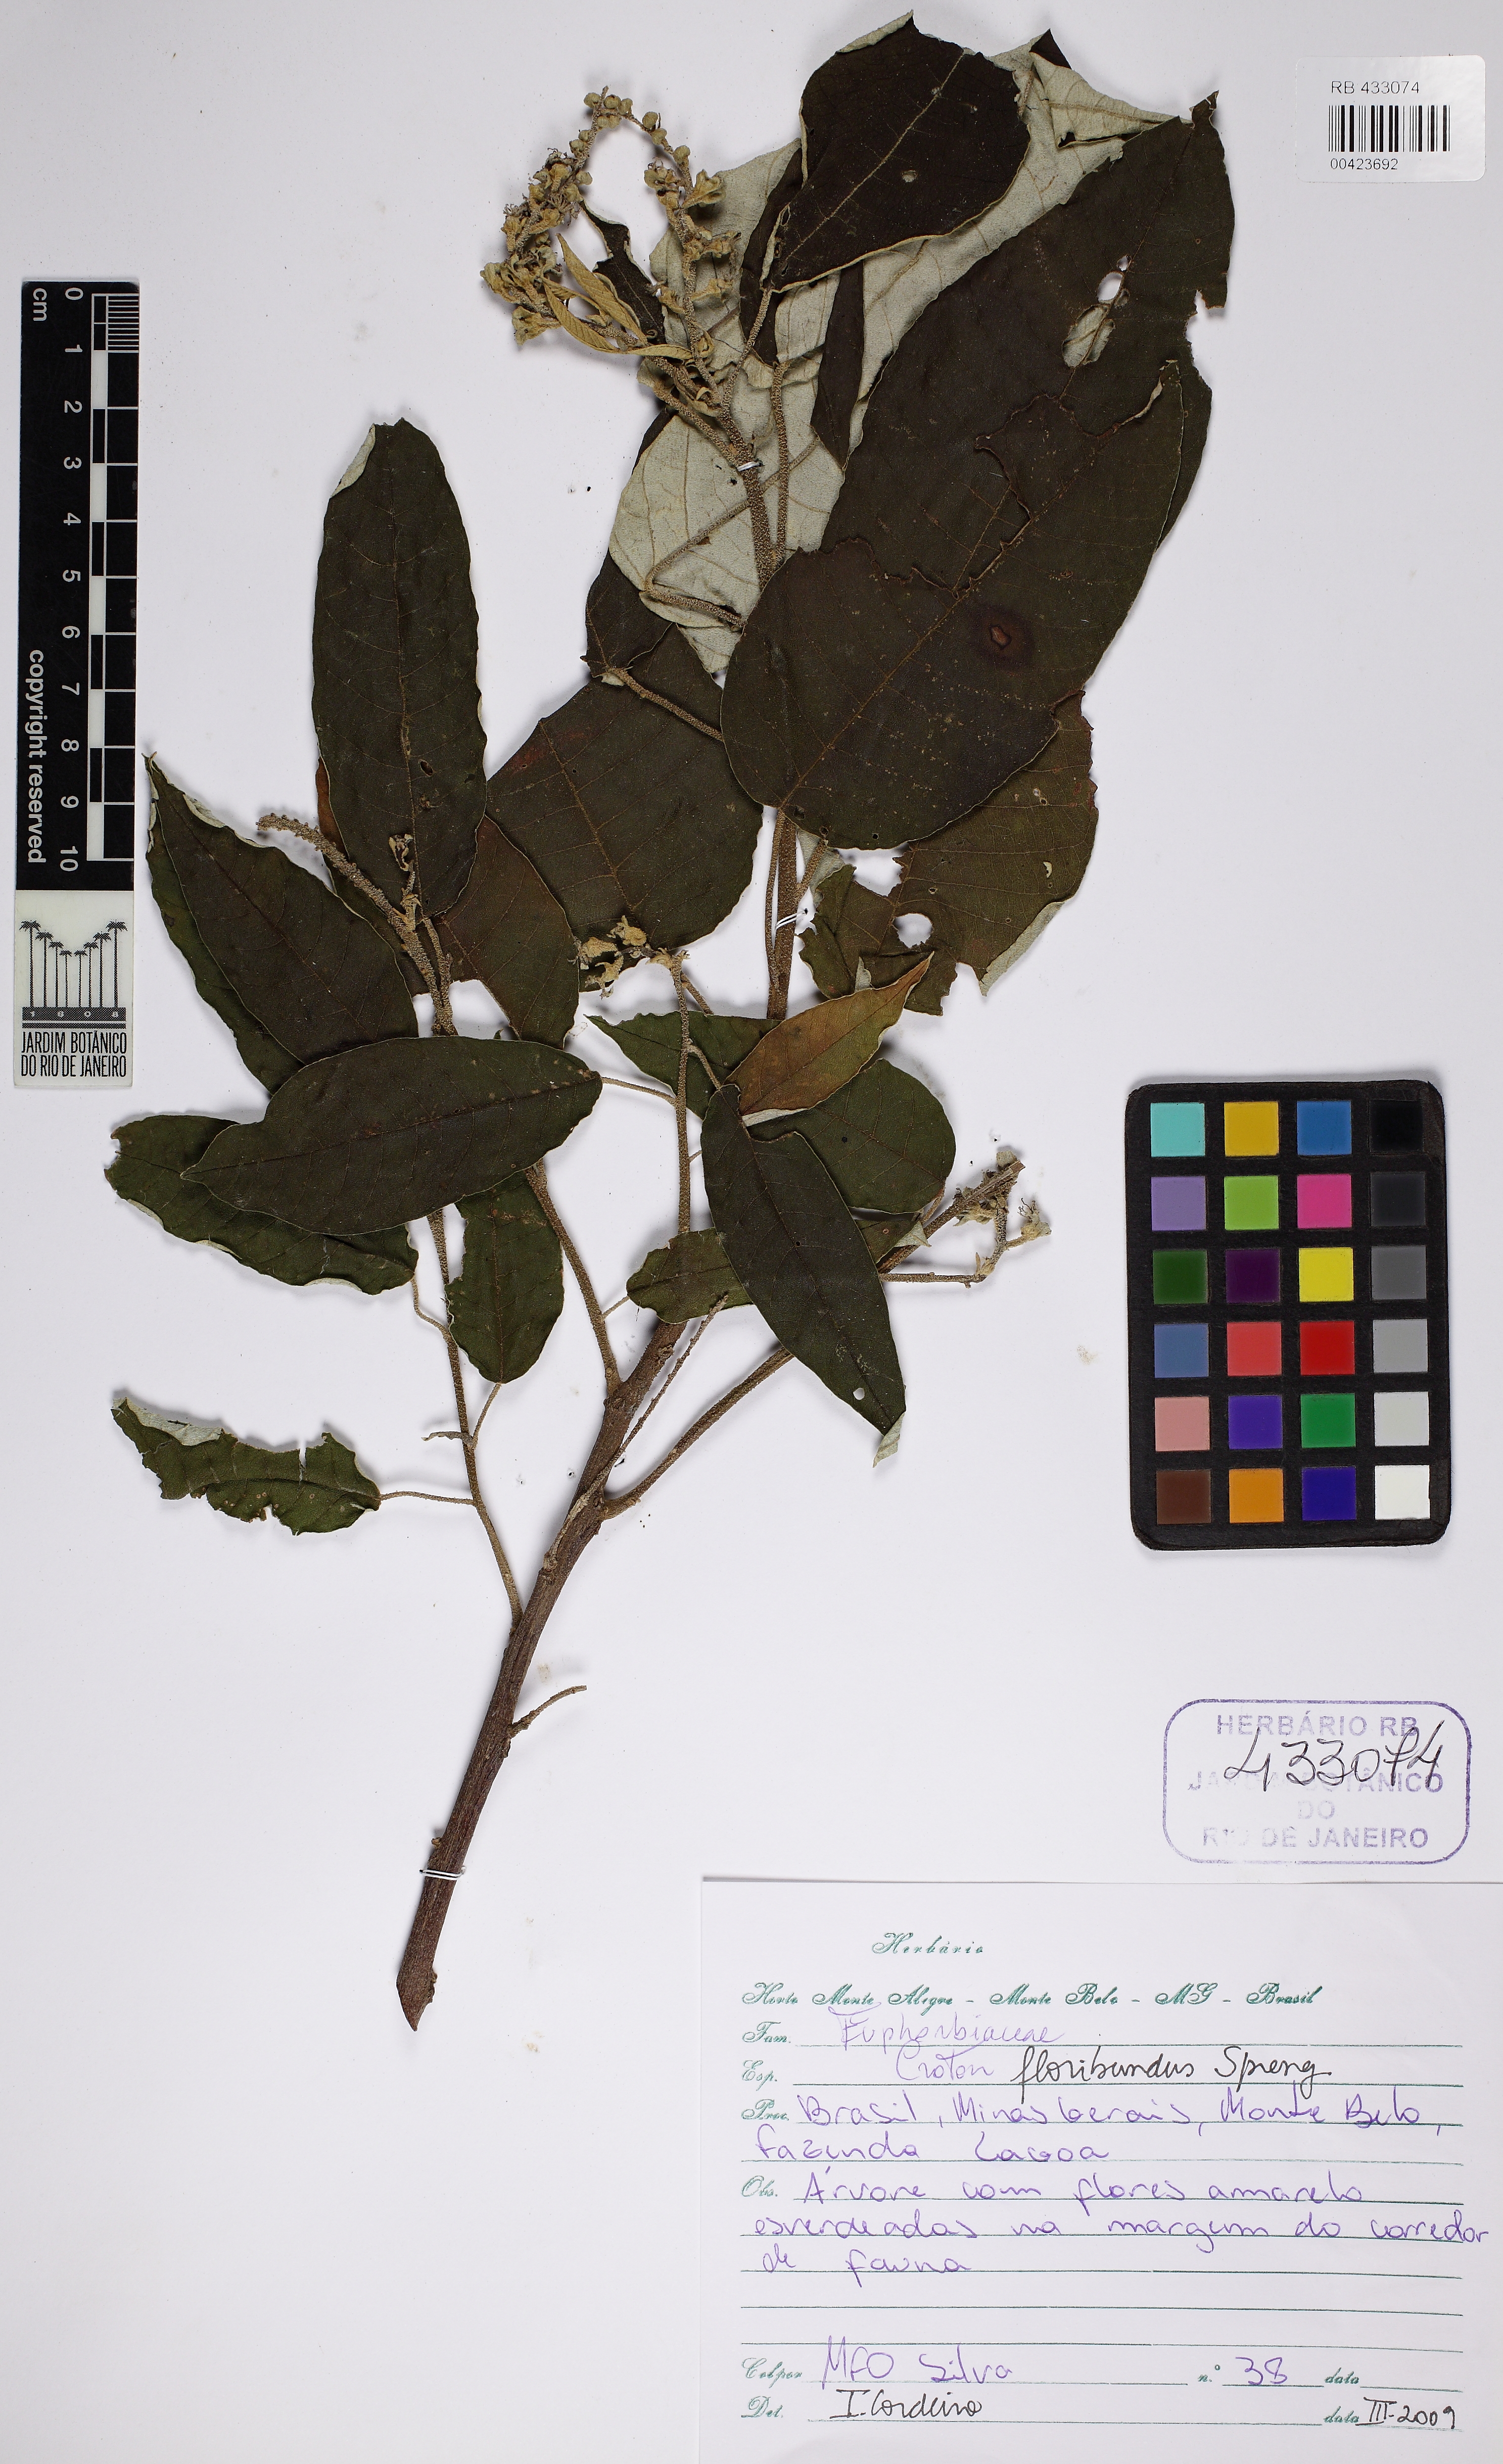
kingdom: Plantae
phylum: Tracheophyta
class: Magnoliopsida
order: Malpighiales
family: Euphorbiaceae
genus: Croton
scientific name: Croton floribundus
